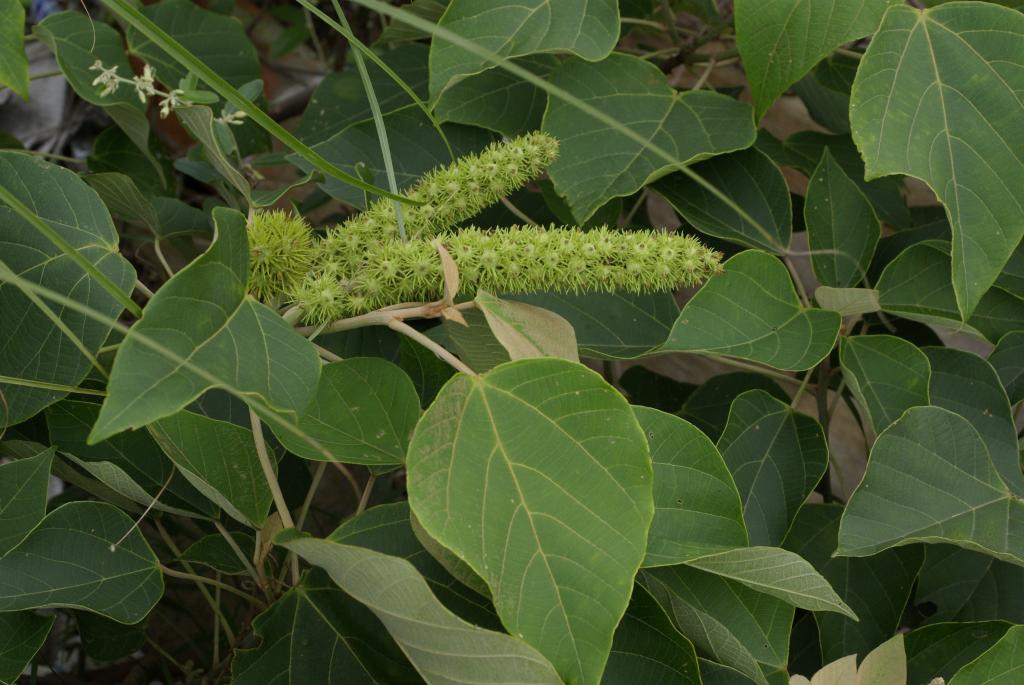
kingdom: Plantae
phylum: Tracheophyta
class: Magnoliopsida
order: Malpighiales
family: Euphorbiaceae
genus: Mallotus
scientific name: Mallotus paniculatus
